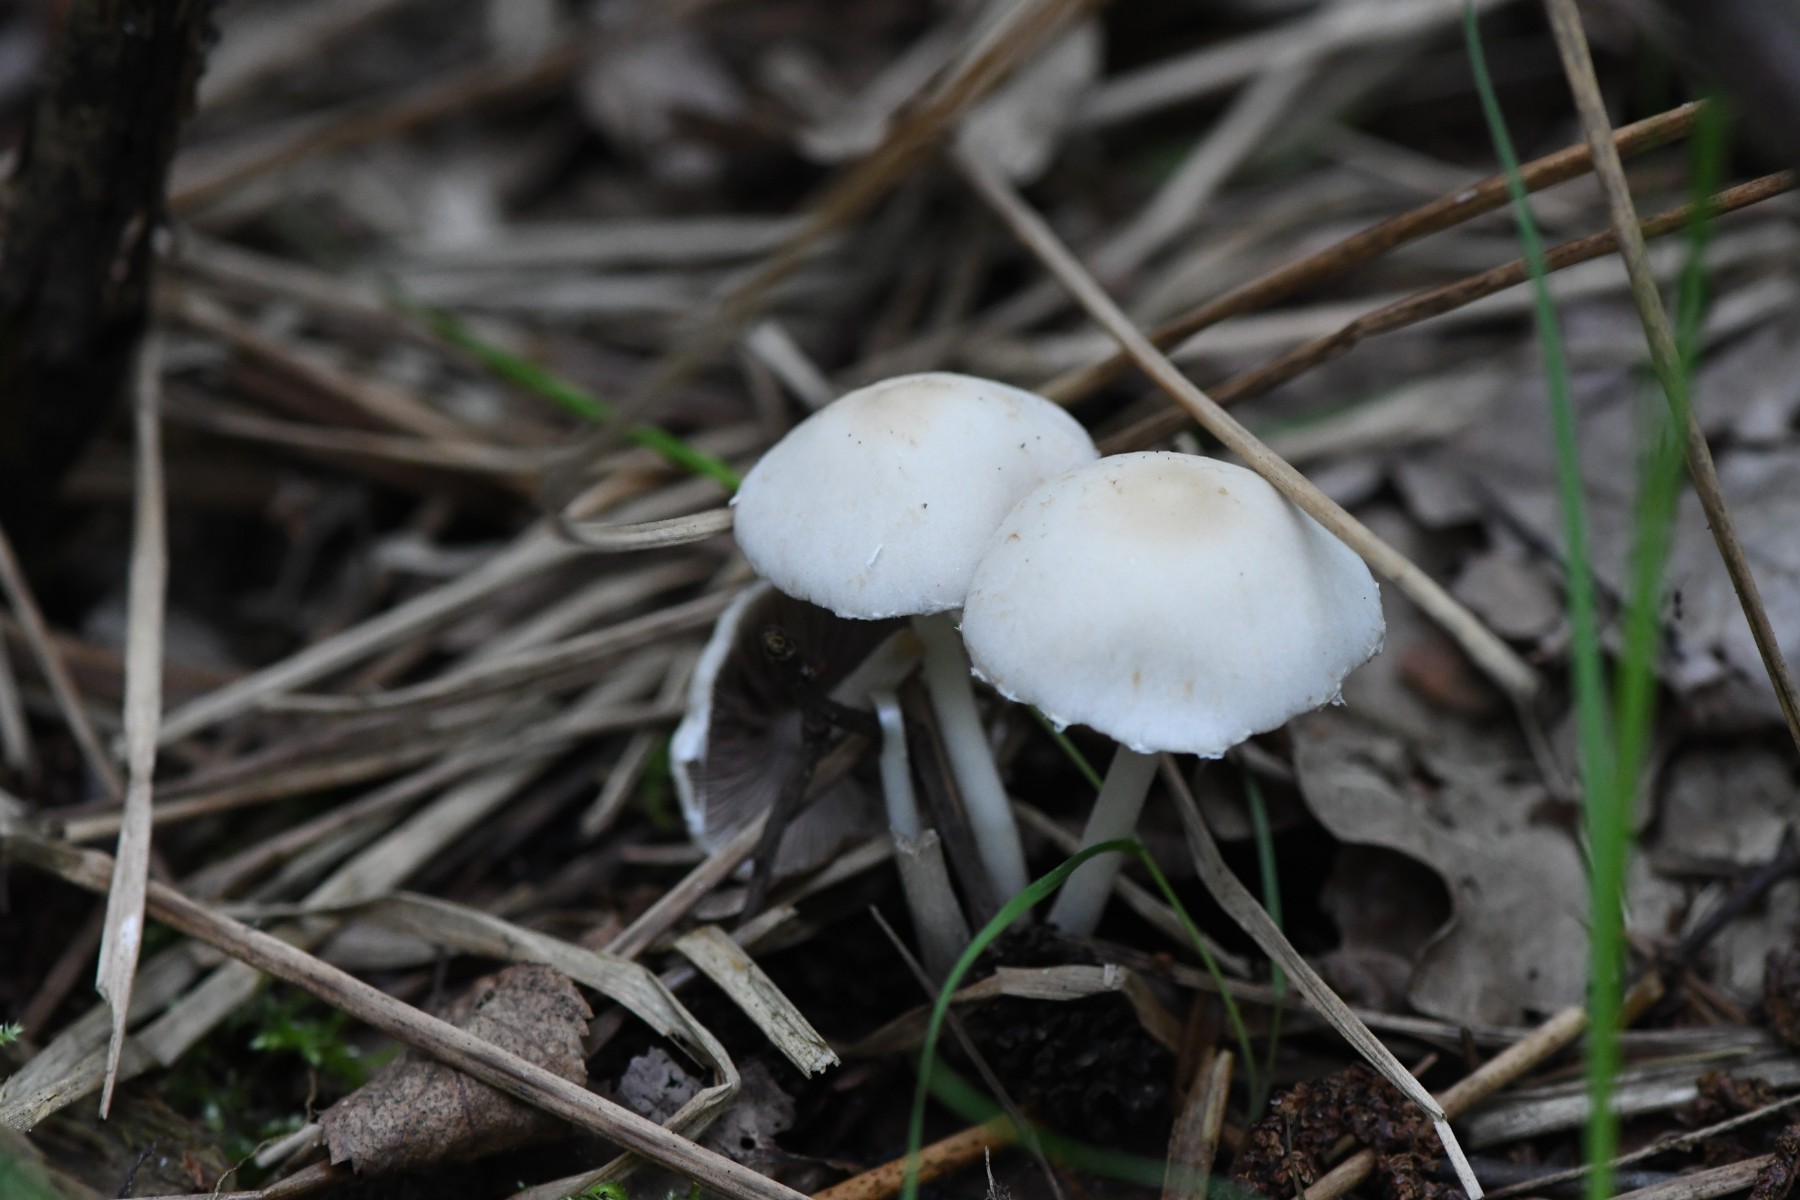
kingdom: Fungi
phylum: Basidiomycota
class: Agaricomycetes
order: Agaricales
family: Psathyrellaceae
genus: Candolleomyces
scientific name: Candolleomyces candolleanus
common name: Candolles mørkhat
